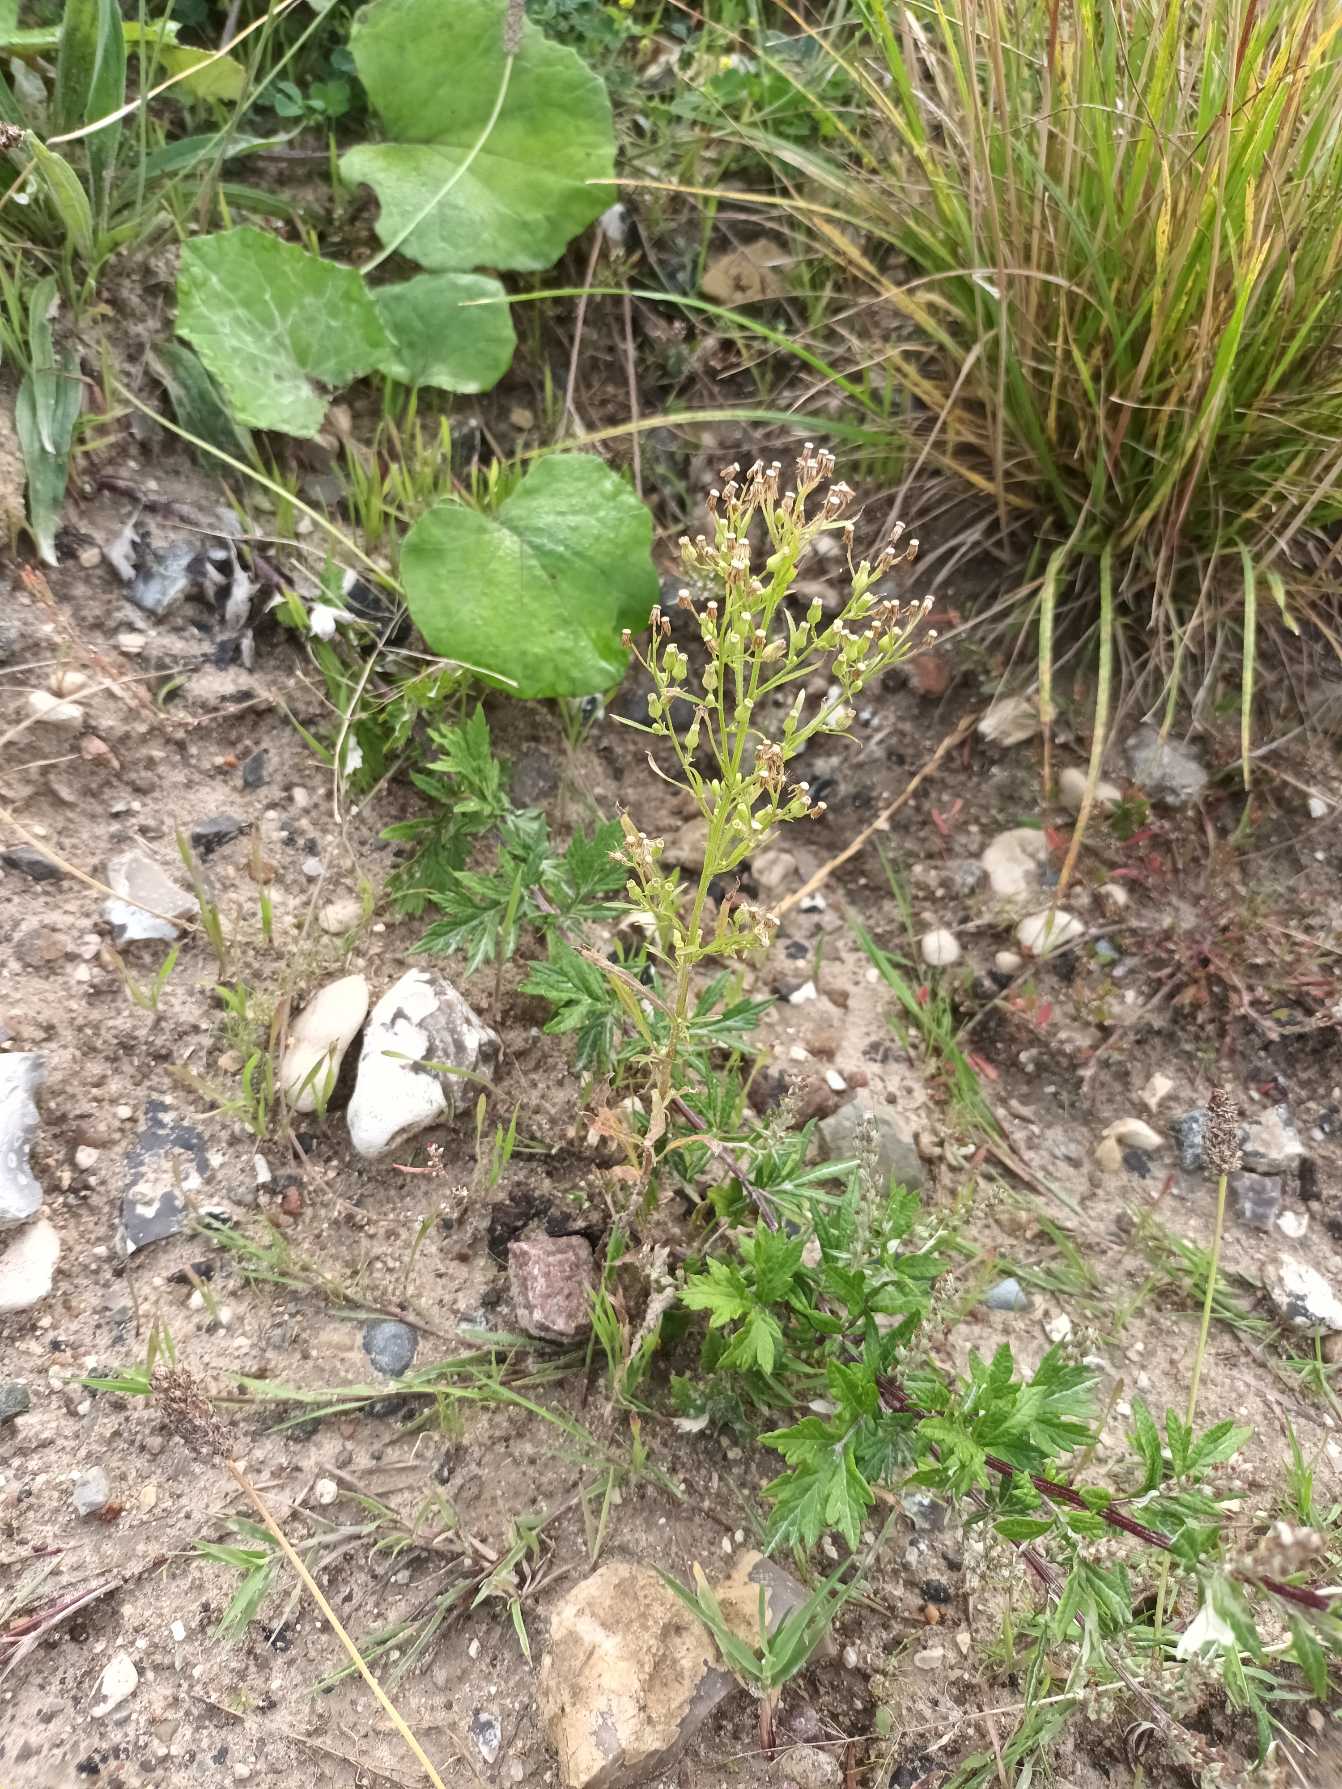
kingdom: Plantae
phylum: Tracheophyta
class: Magnoliopsida
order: Asterales
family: Asteraceae
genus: Erigeron
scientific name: Erigeron canadensis
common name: Kanadisk bakkestjerne
